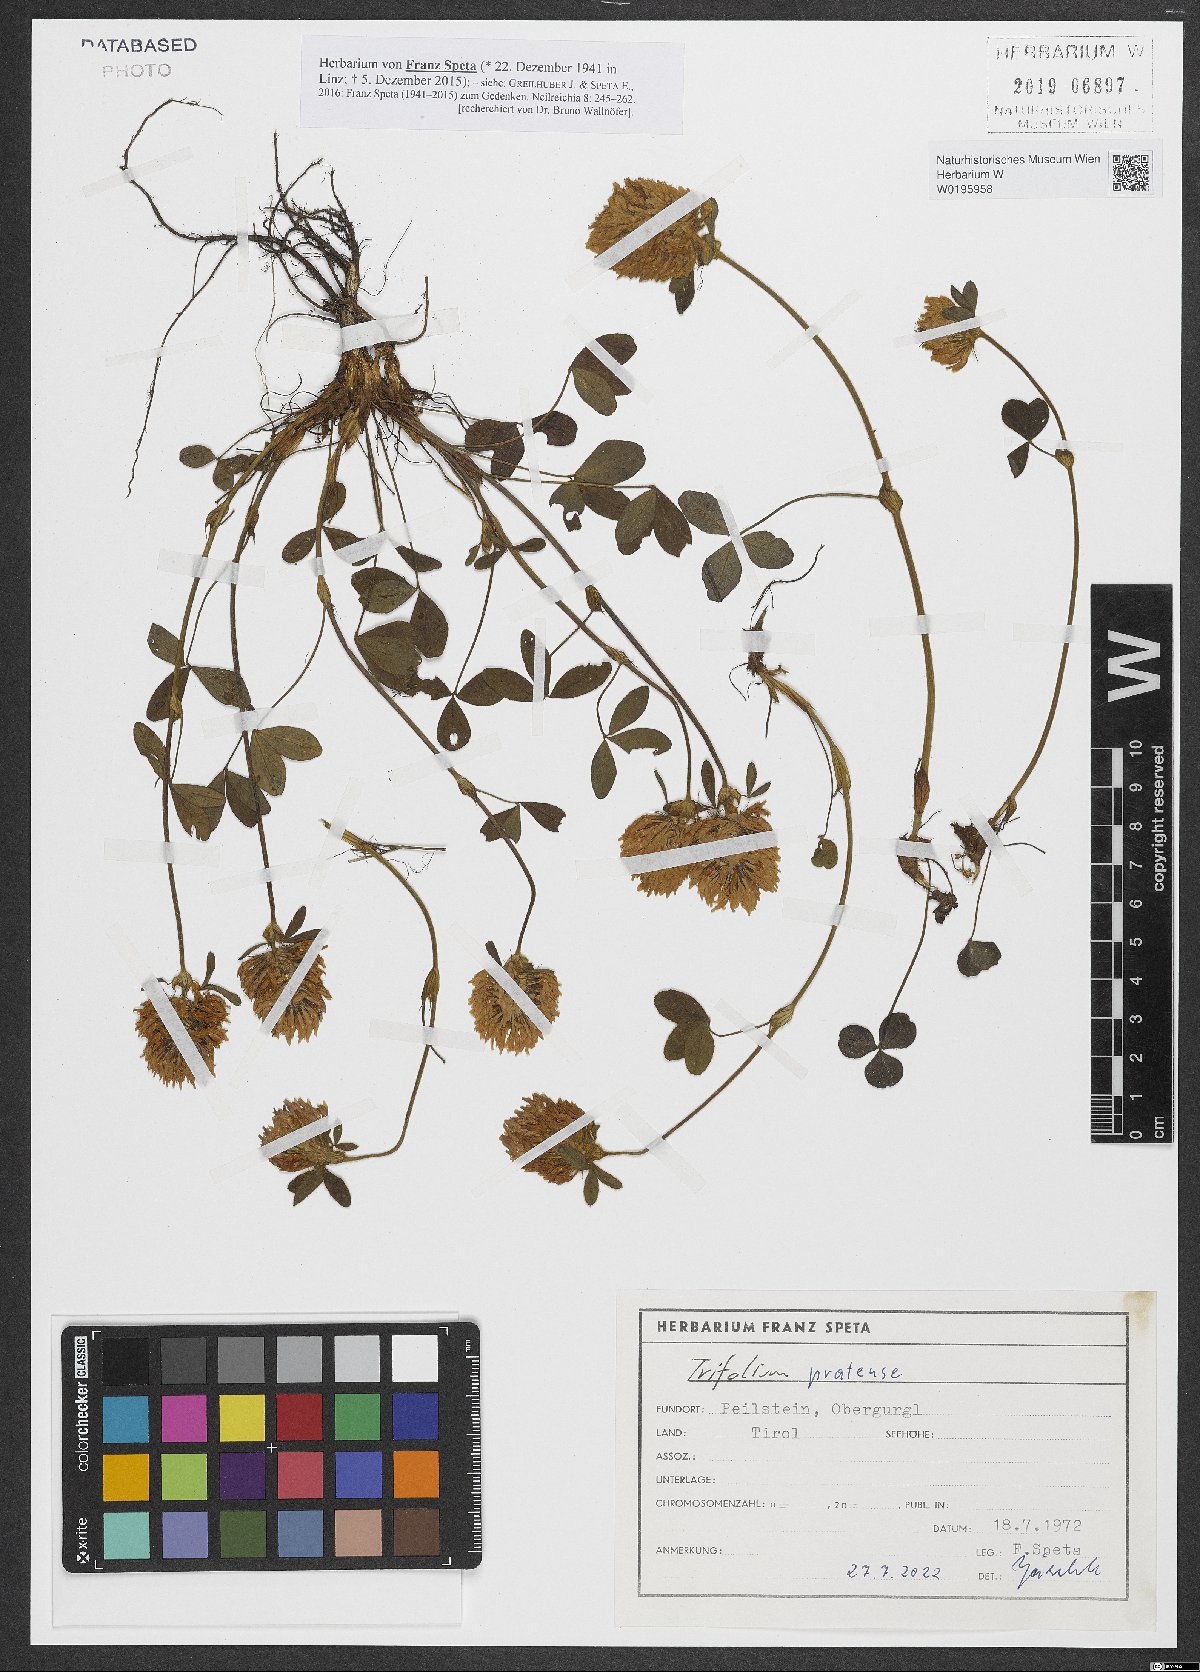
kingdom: Plantae
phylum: Tracheophyta
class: Magnoliopsida
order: Fabales
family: Fabaceae
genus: Trifolium
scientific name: Trifolium pratense
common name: Red clover
